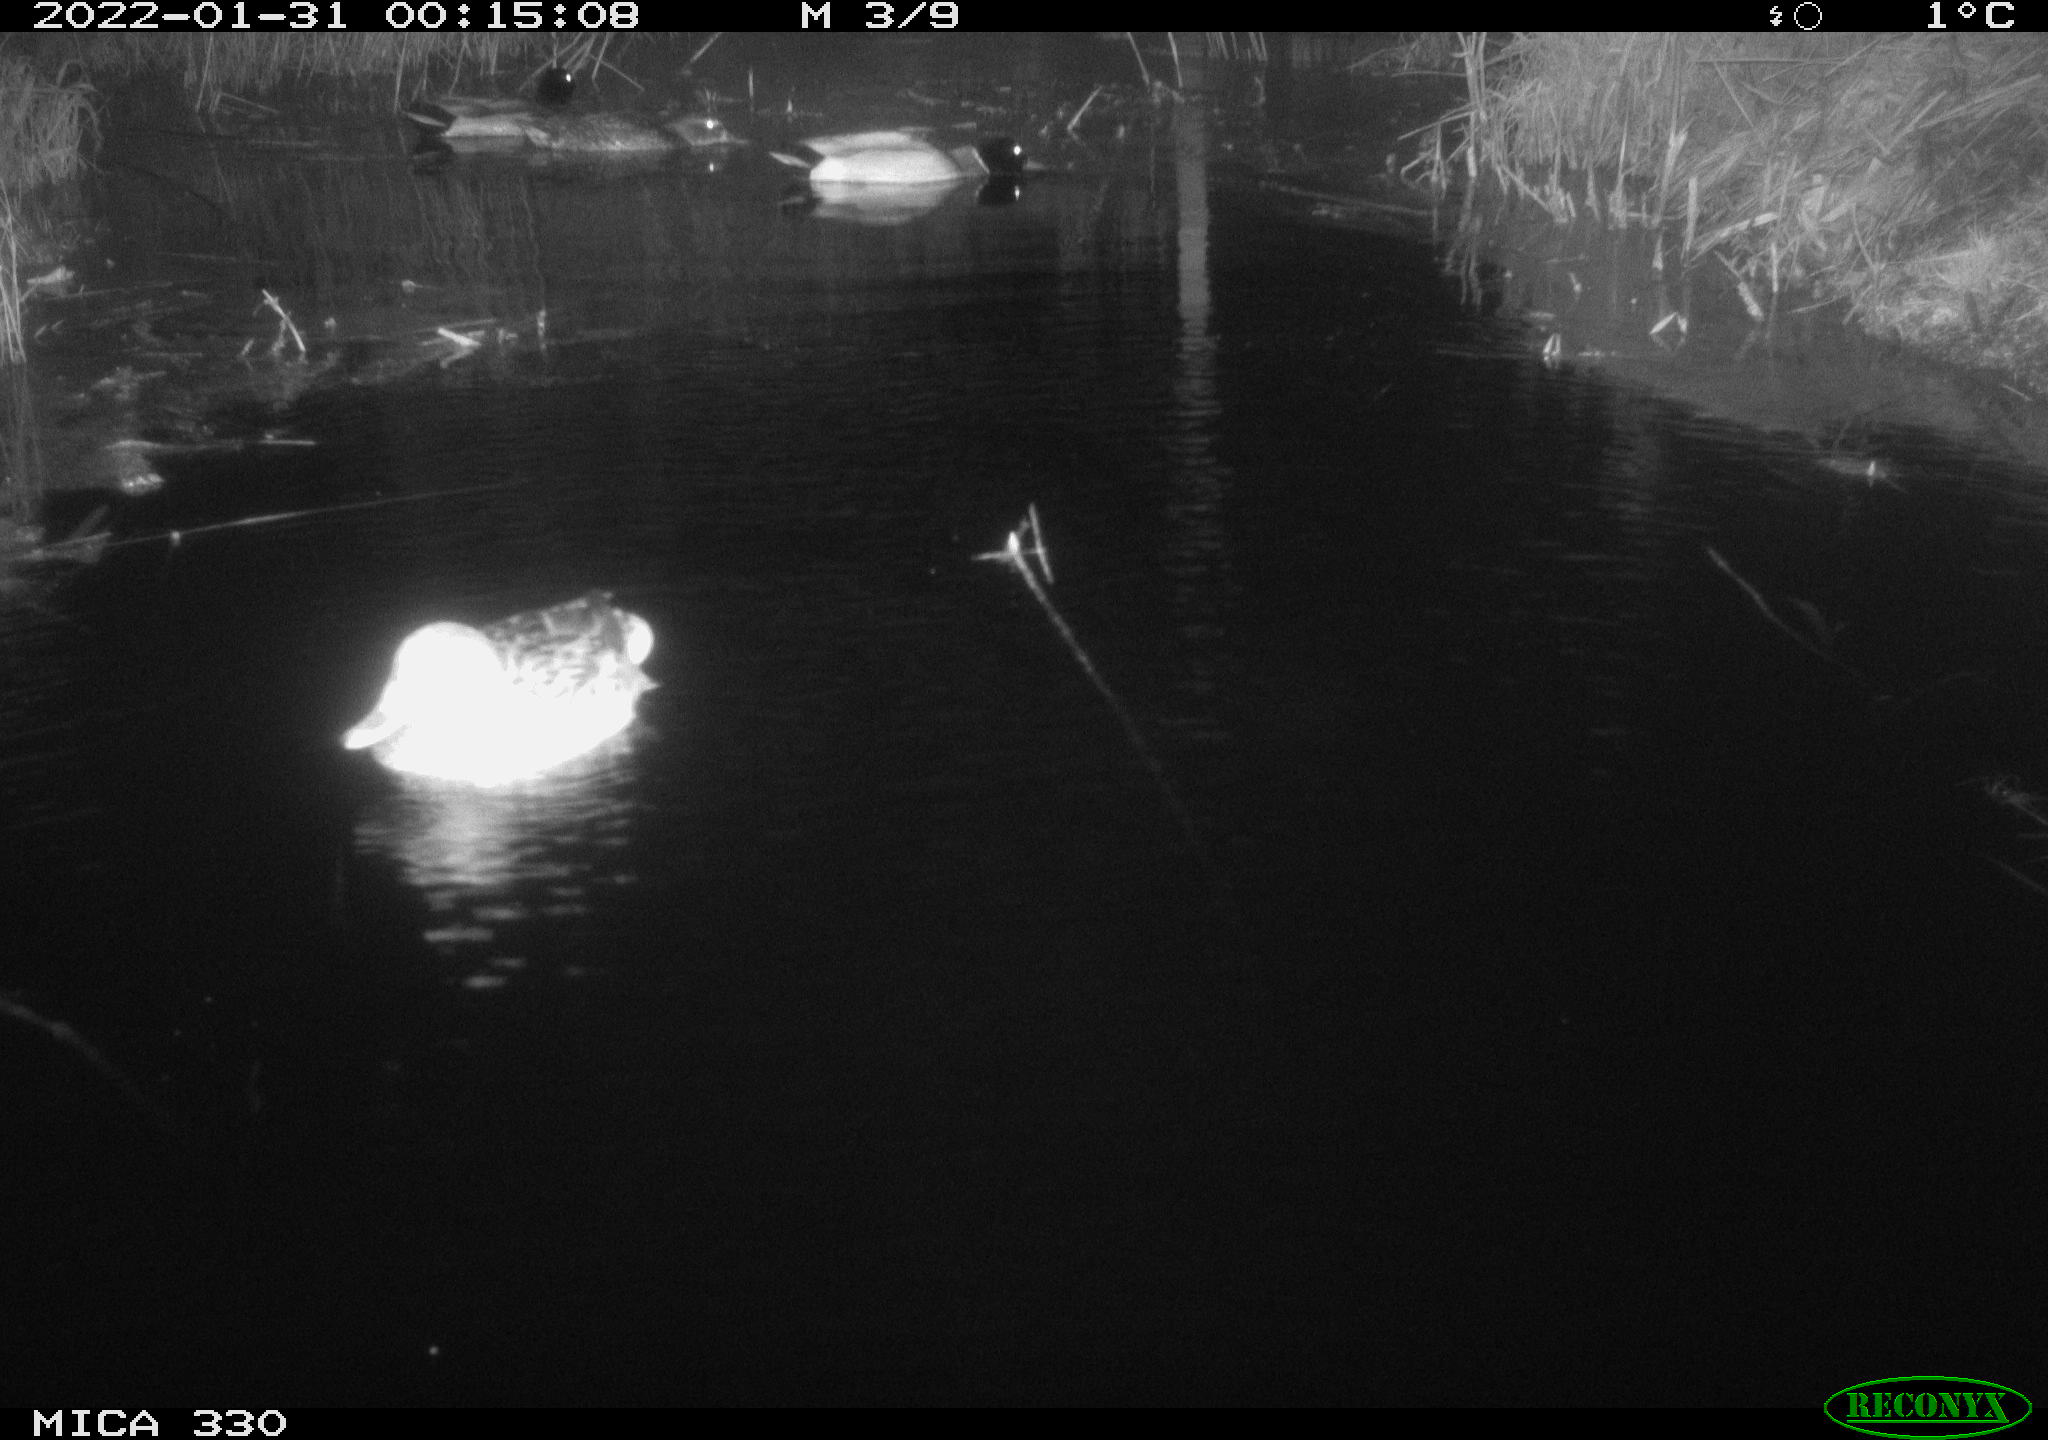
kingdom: Animalia
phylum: Chordata
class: Aves
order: Anseriformes
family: Anatidae
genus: Anas
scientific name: Anas platyrhynchos
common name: Mallard
